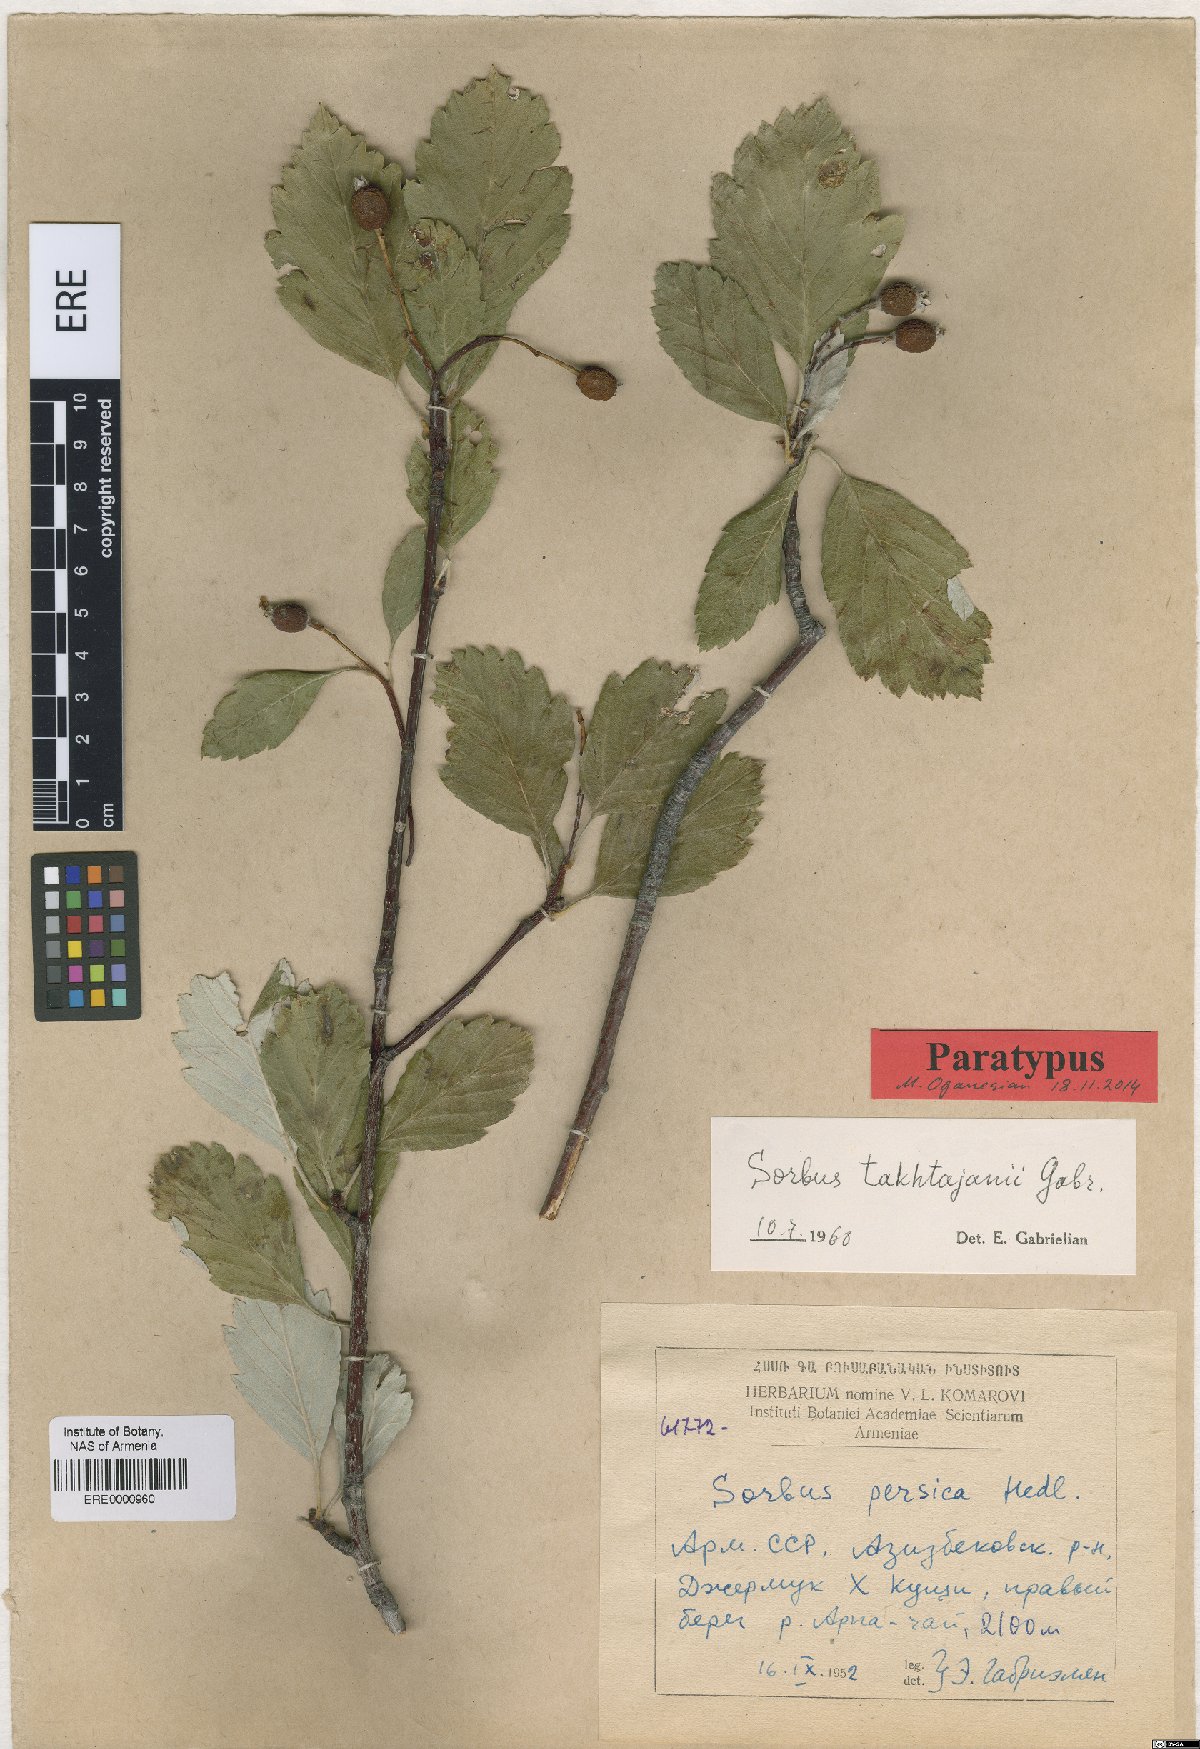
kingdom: Plantae
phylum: Tracheophyta
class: Magnoliopsida
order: Rosales
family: Rosaceae
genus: Hedlundia
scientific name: Hedlundia takhtajanii
